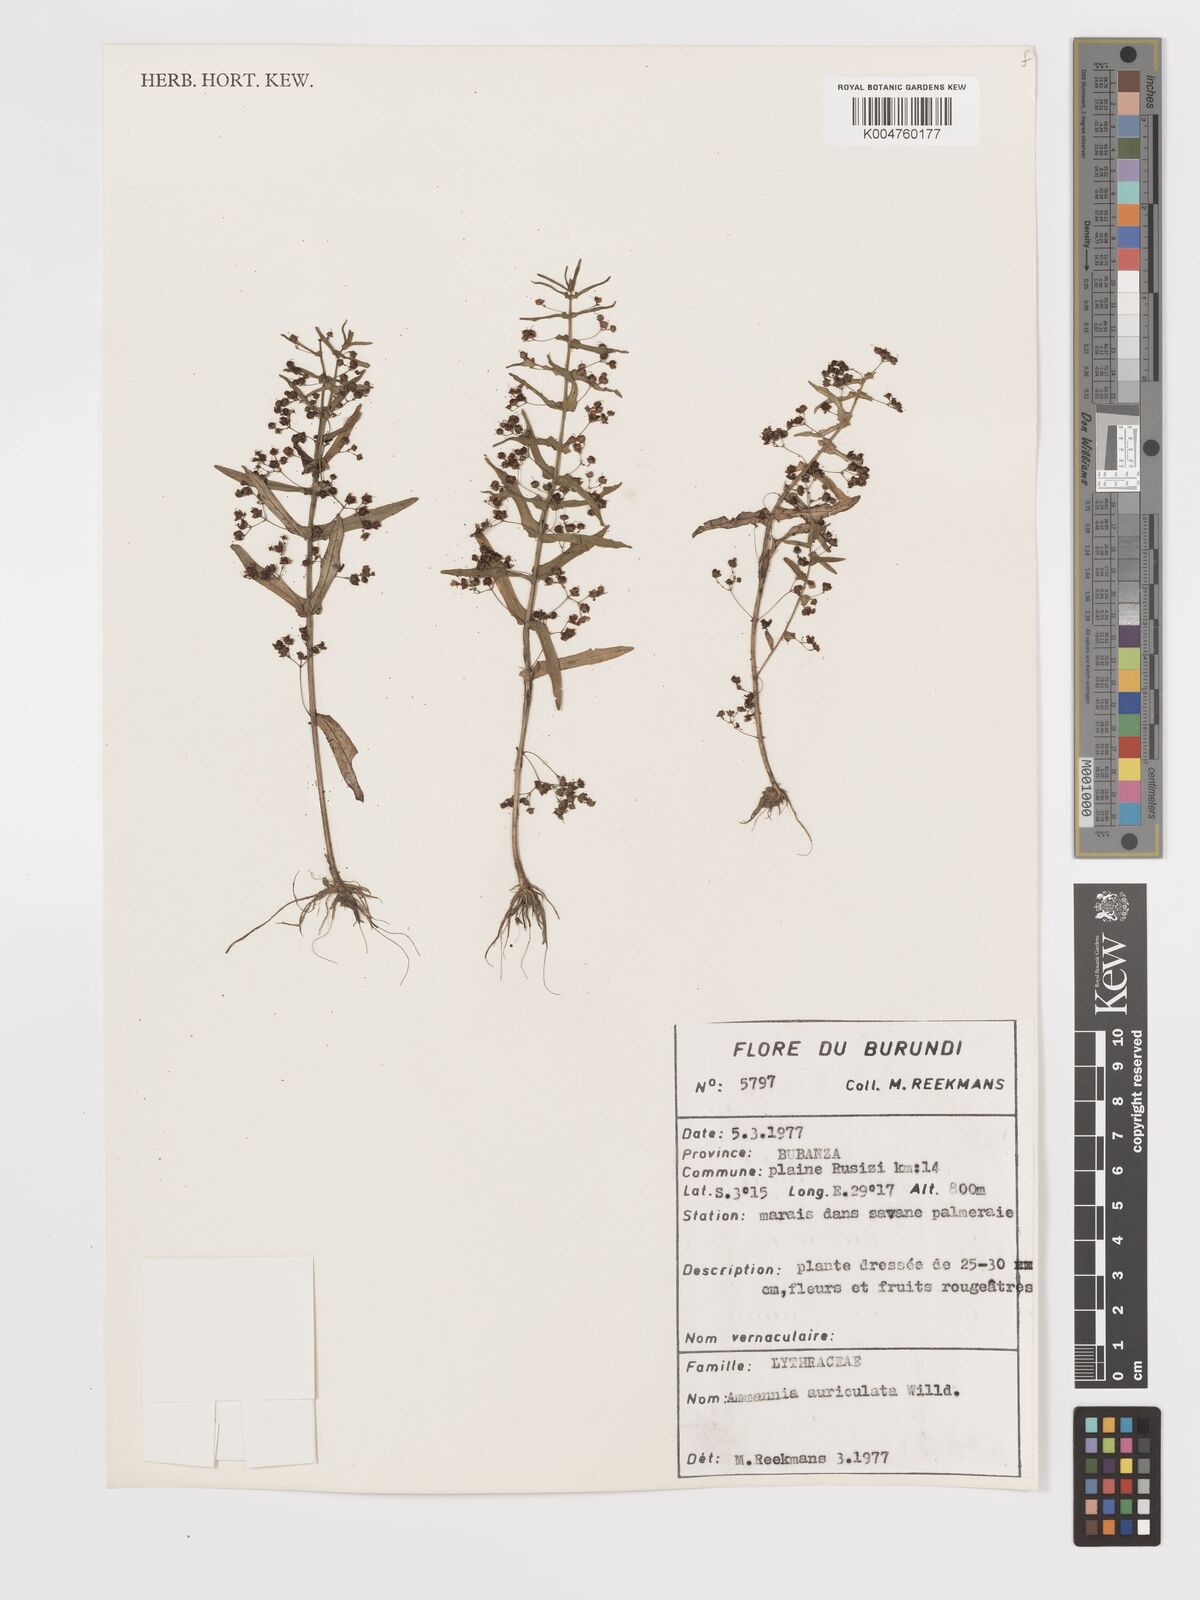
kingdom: Plantae
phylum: Tracheophyta
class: Magnoliopsida
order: Myrtales
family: Lythraceae
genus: Ammannia
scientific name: Ammannia auriculata
